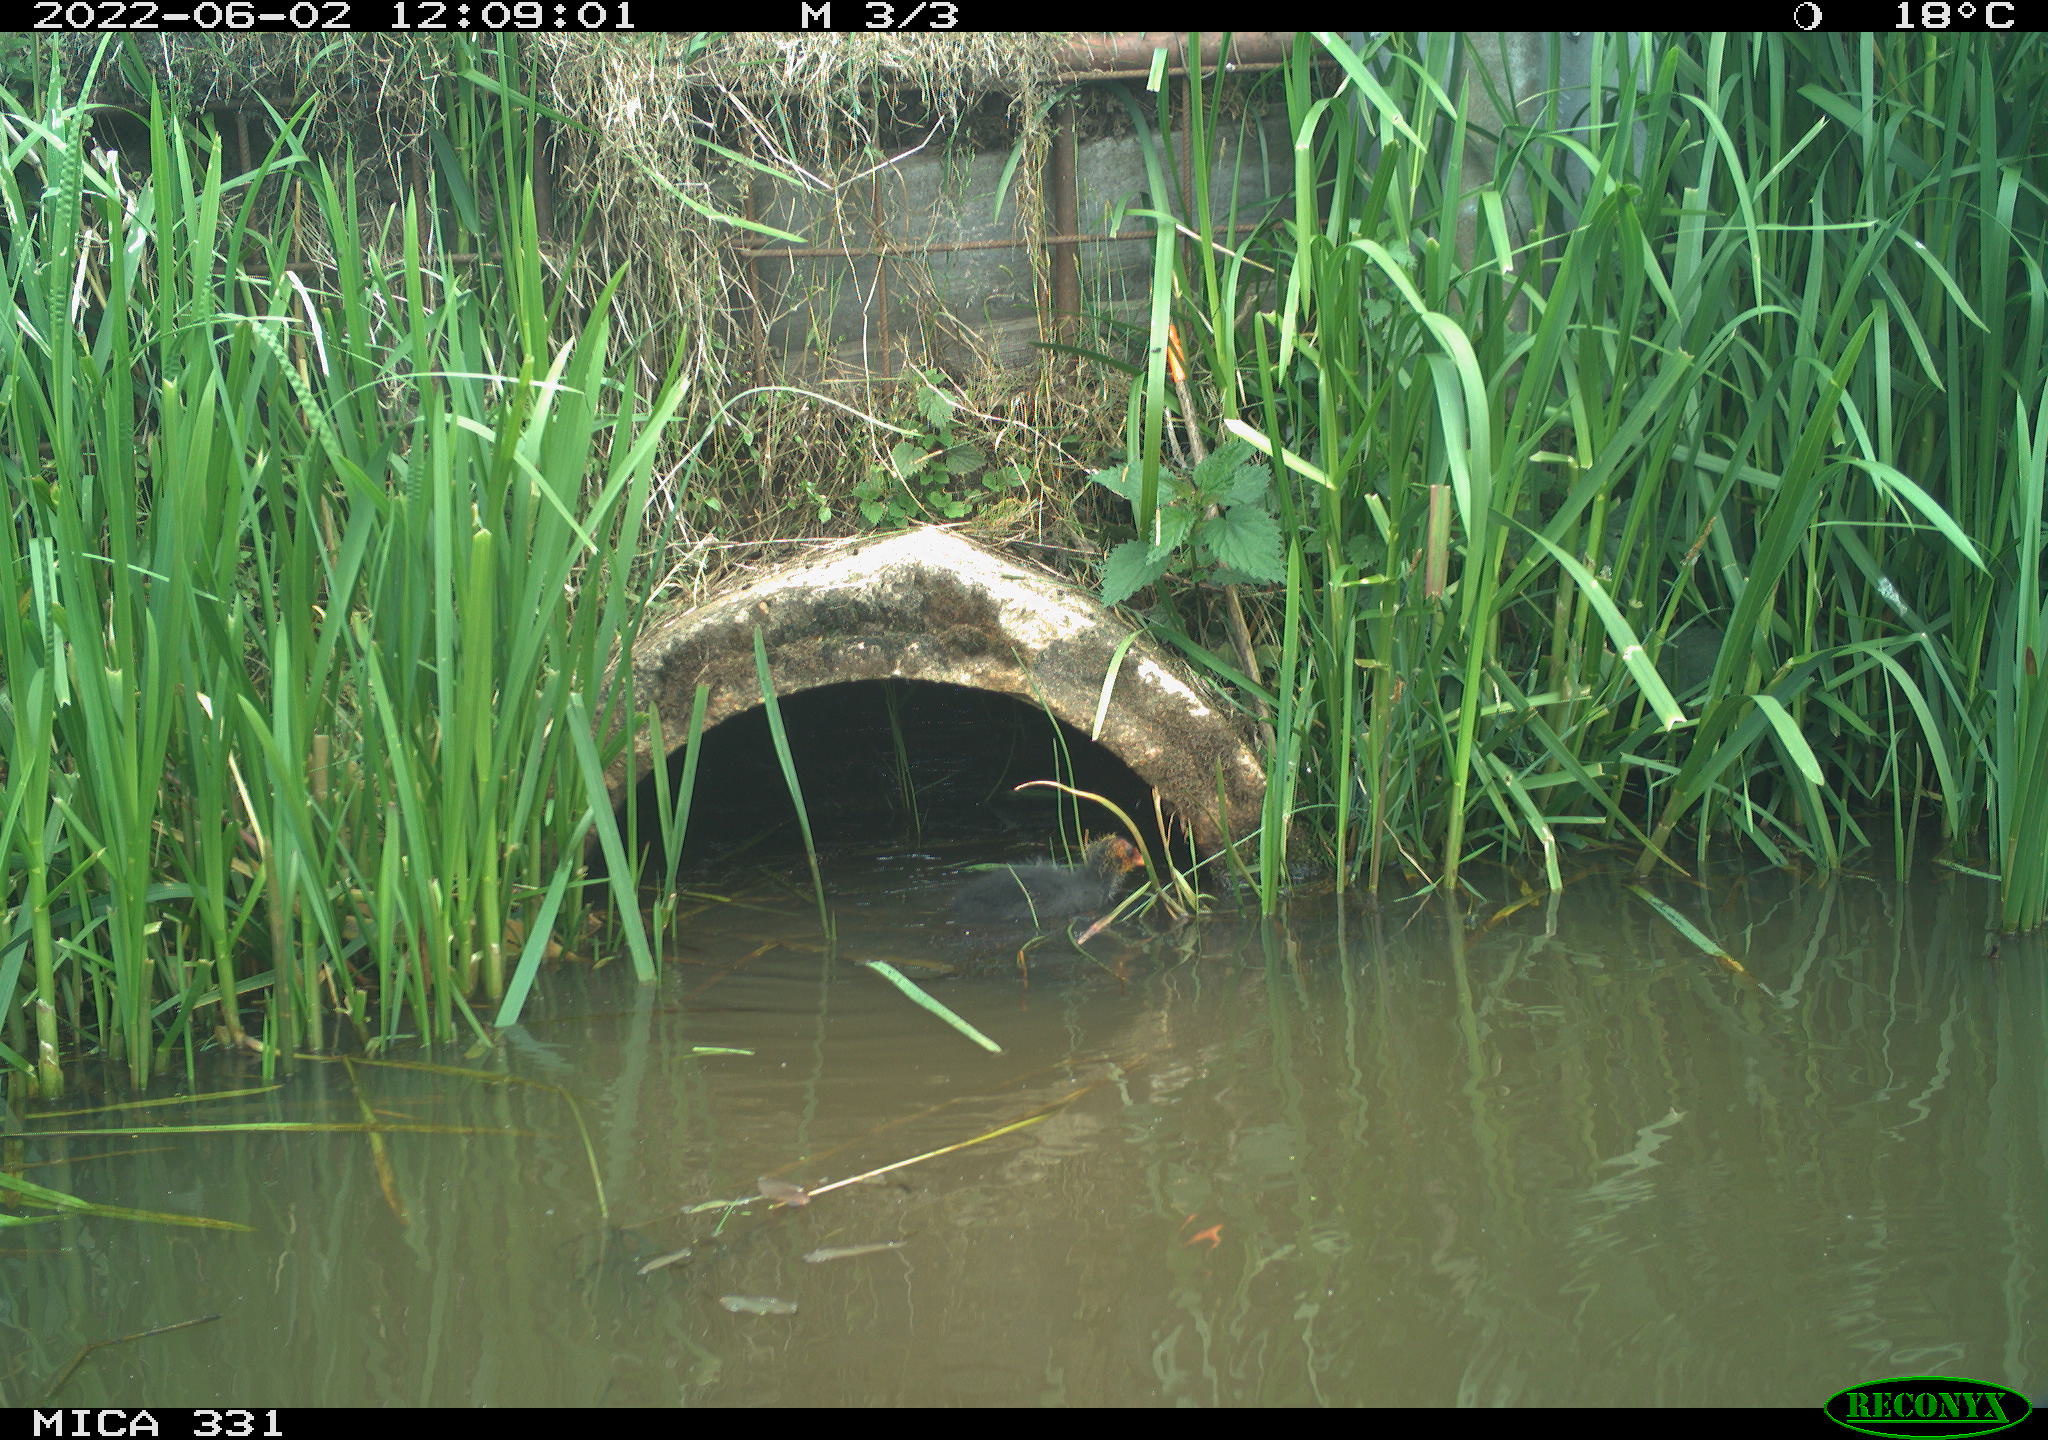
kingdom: Animalia
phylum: Chordata
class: Aves
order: Gruiformes
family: Rallidae
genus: Fulica
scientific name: Fulica atra
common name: Eurasian coot
